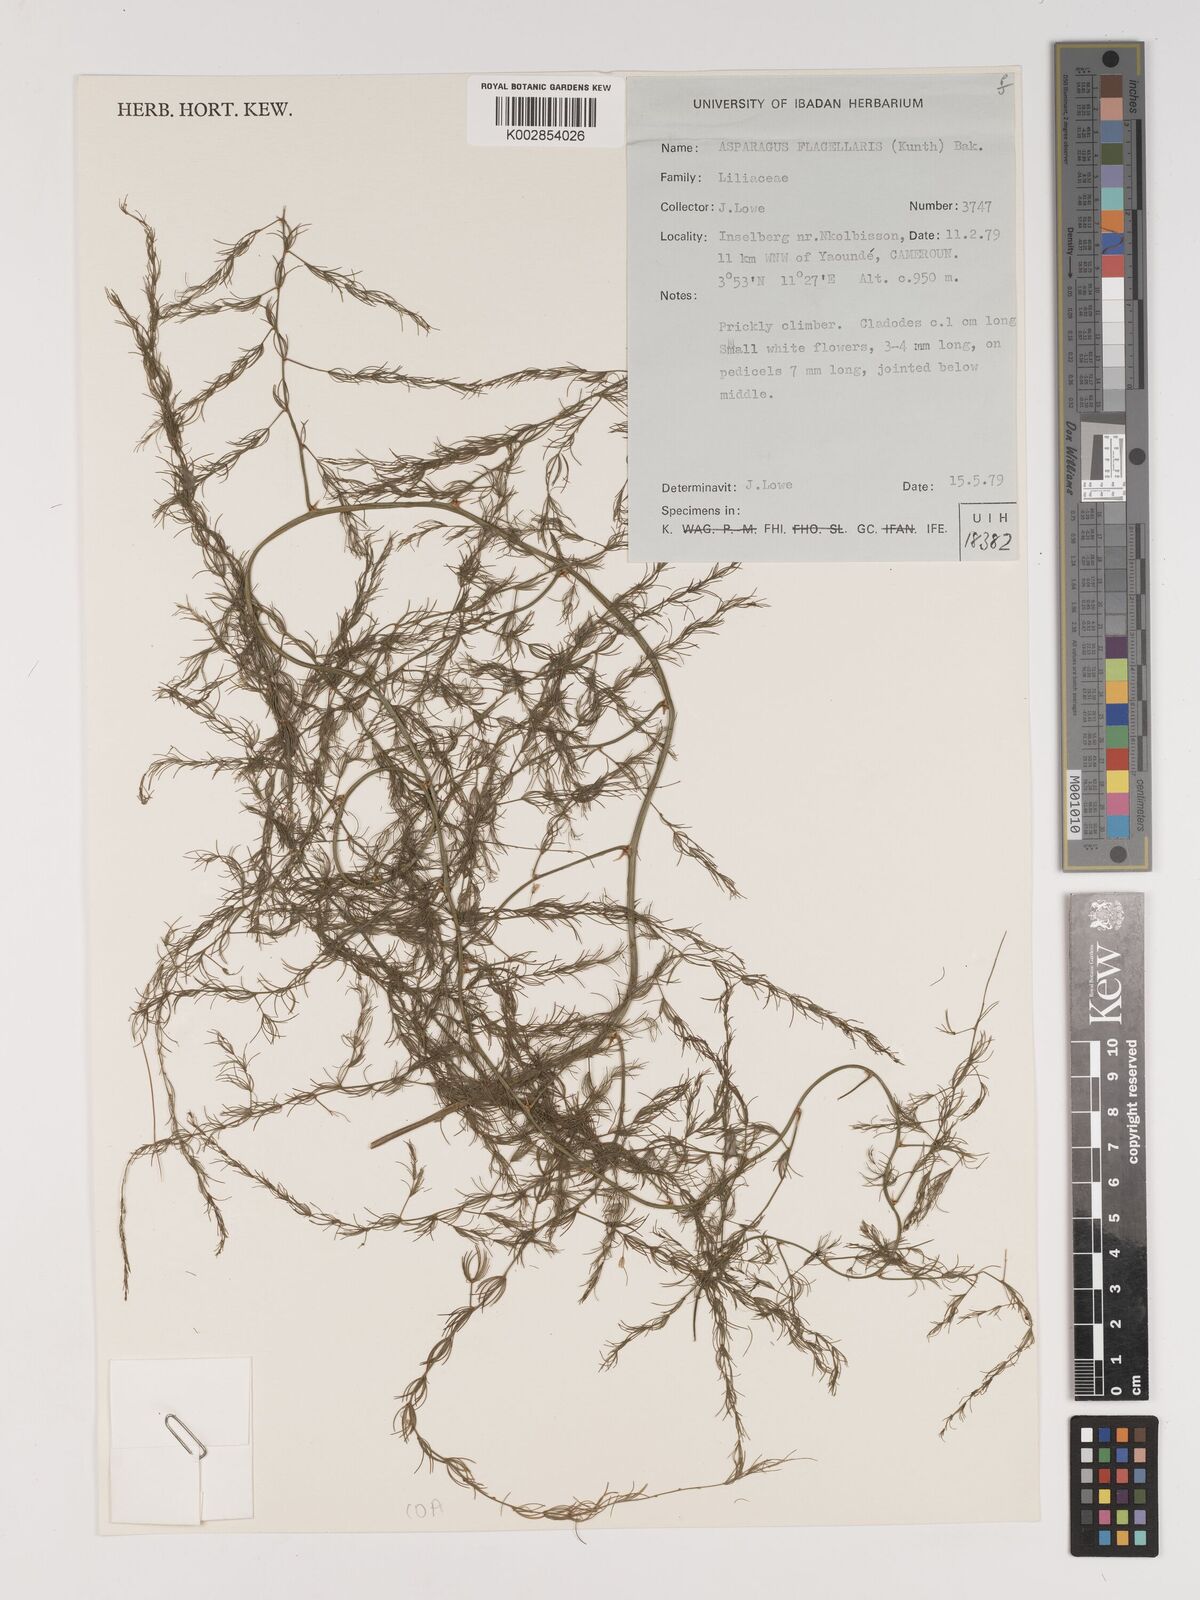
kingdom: Plantae
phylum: Tracheophyta
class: Liliopsida
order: Asparagales
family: Asparagaceae
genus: Asparagus
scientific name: Asparagus flagellaris
